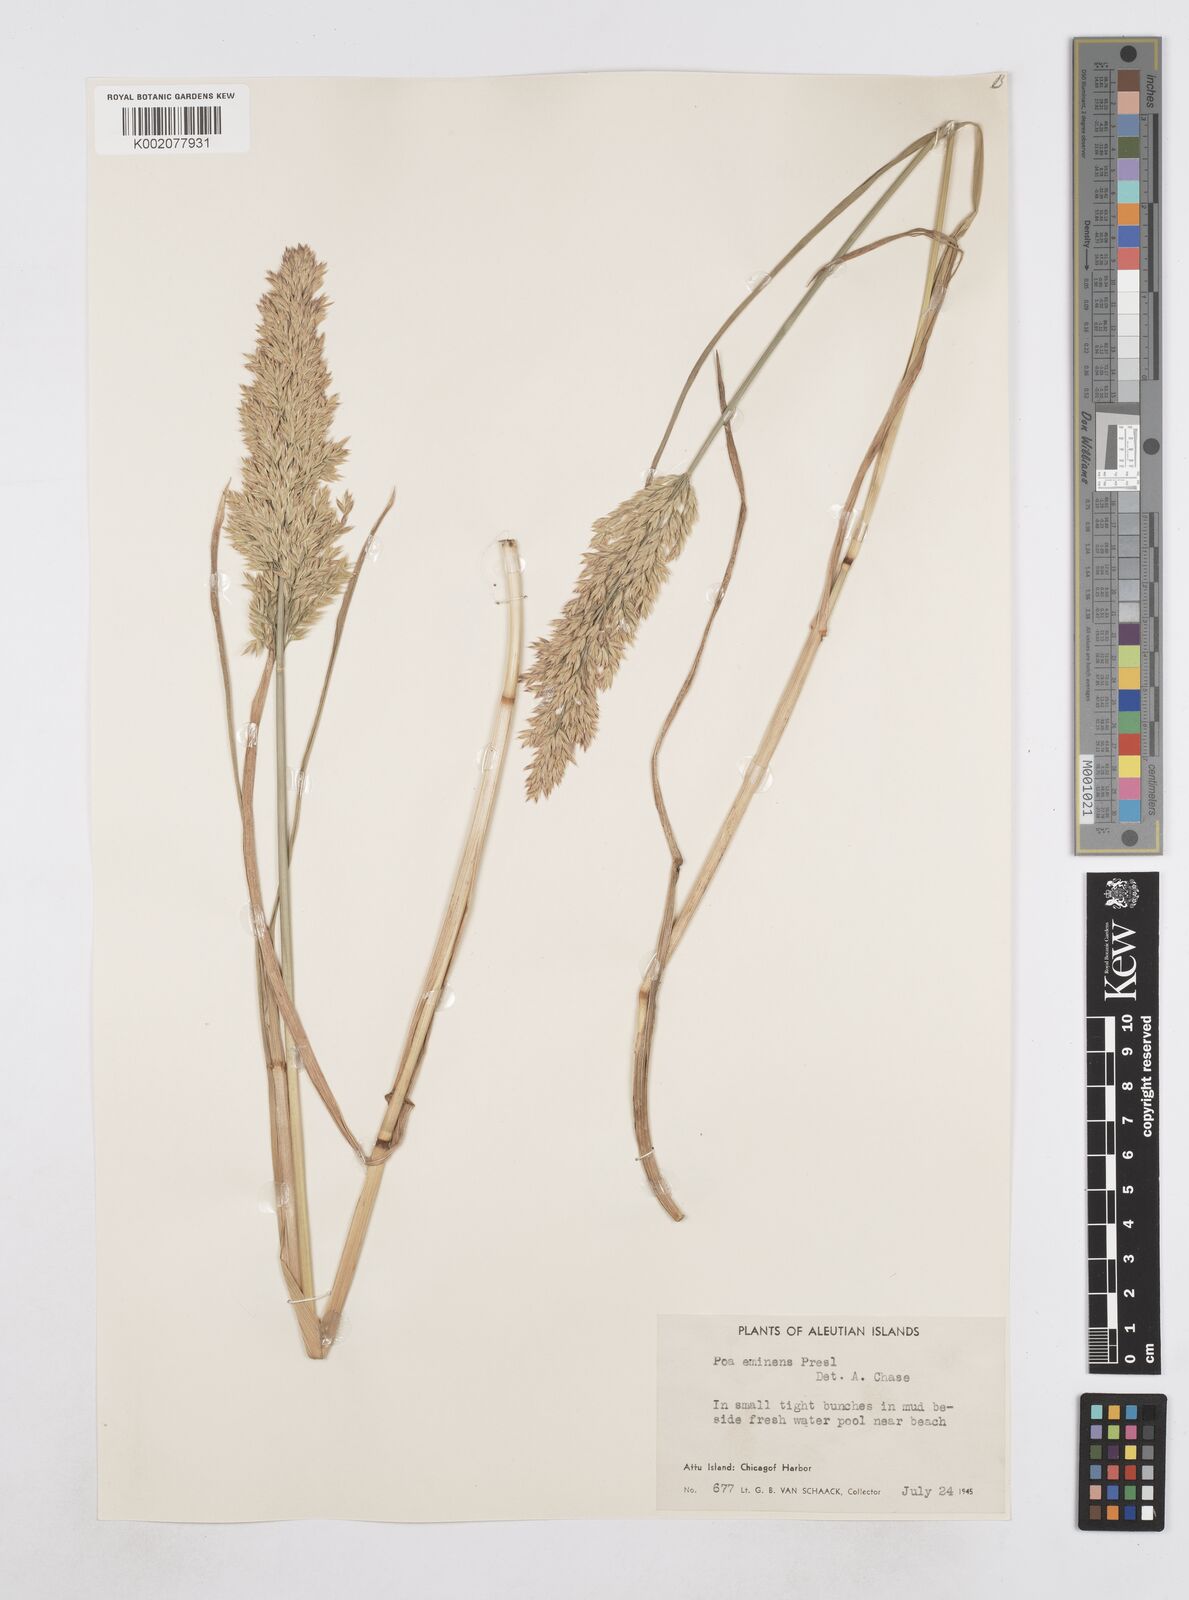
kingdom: Plantae
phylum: Tracheophyta
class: Liliopsida
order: Poales
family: Poaceae
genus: Arctopoa
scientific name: Arctopoa eminens
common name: Eminent bluegrass
